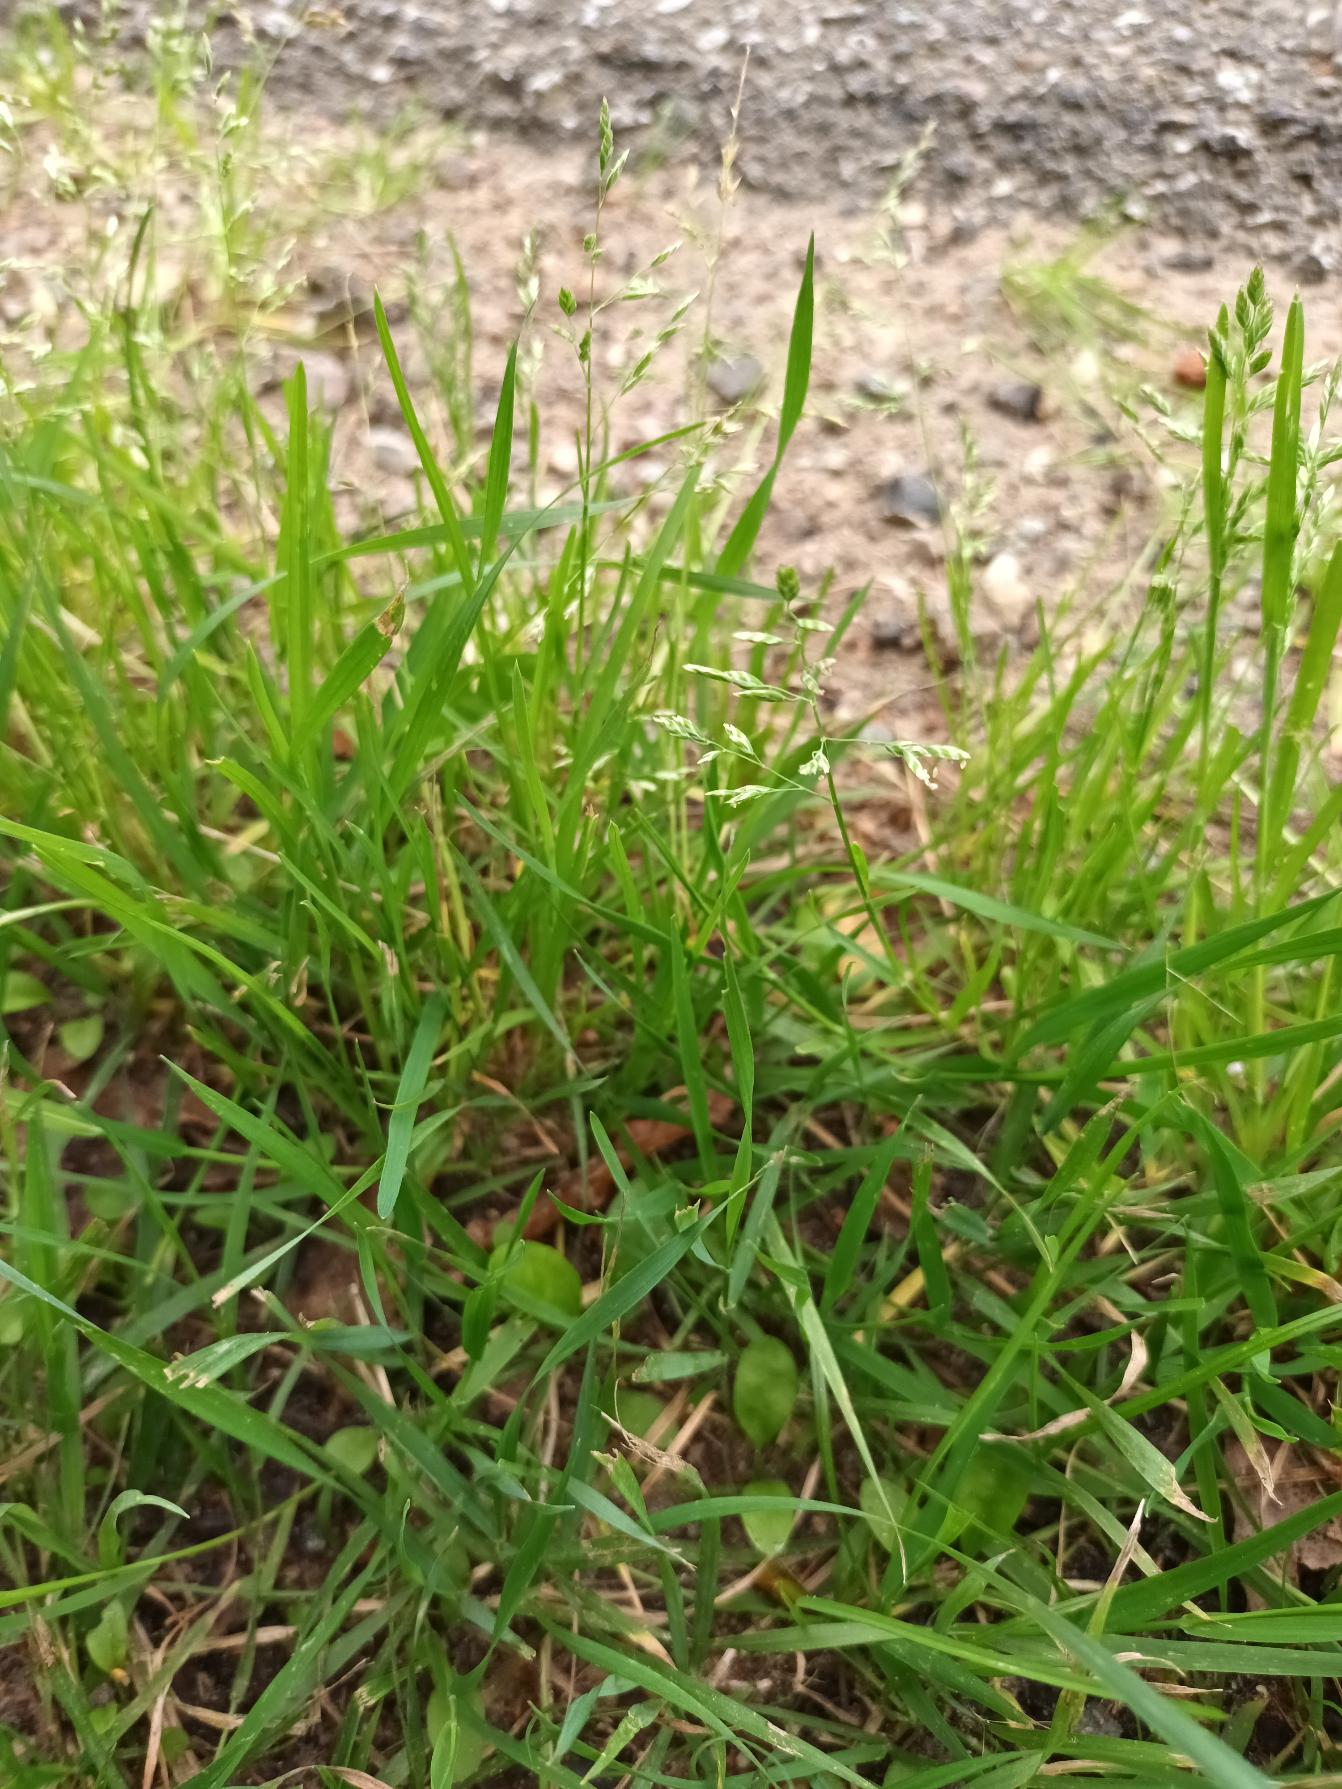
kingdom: Plantae
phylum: Tracheophyta
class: Liliopsida
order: Poales
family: Poaceae
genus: Poa
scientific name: Poa annua
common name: Enårig rapgræs
